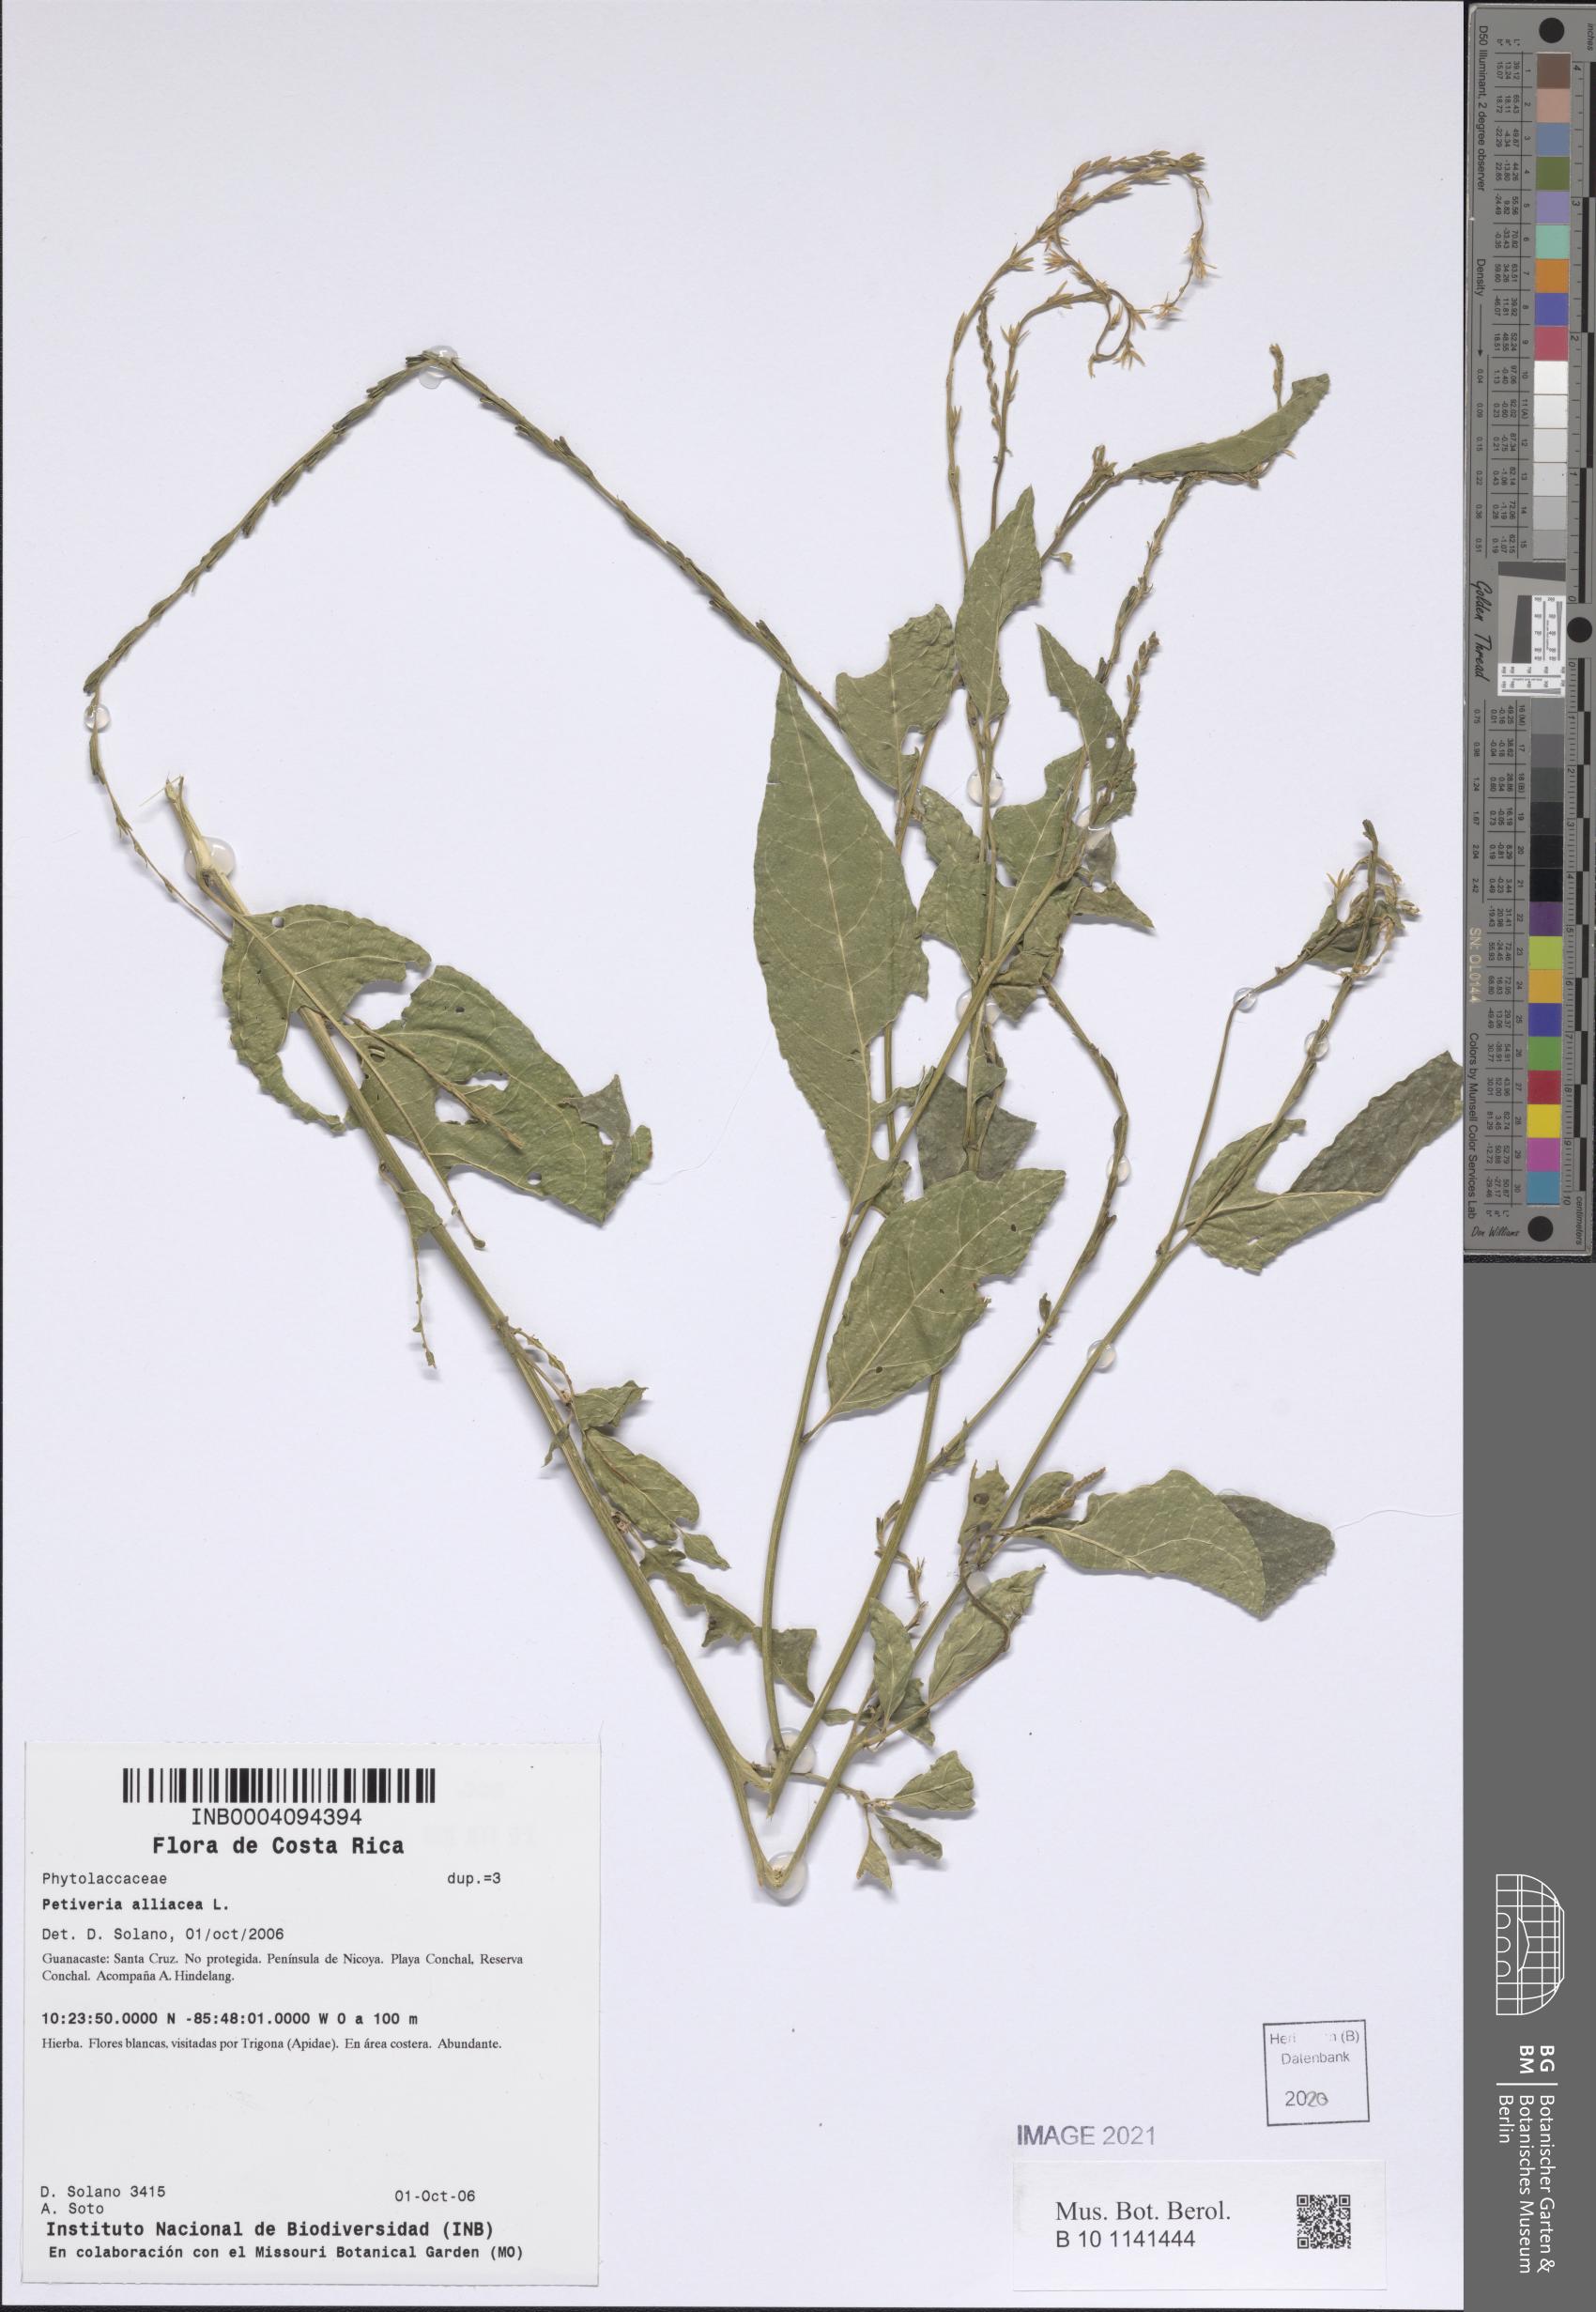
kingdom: Plantae
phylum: Tracheophyta
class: Magnoliopsida
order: Caryophyllales
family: Phytolaccaceae
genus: Petiveria
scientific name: Petiveria alliacea
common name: Garlicweed
